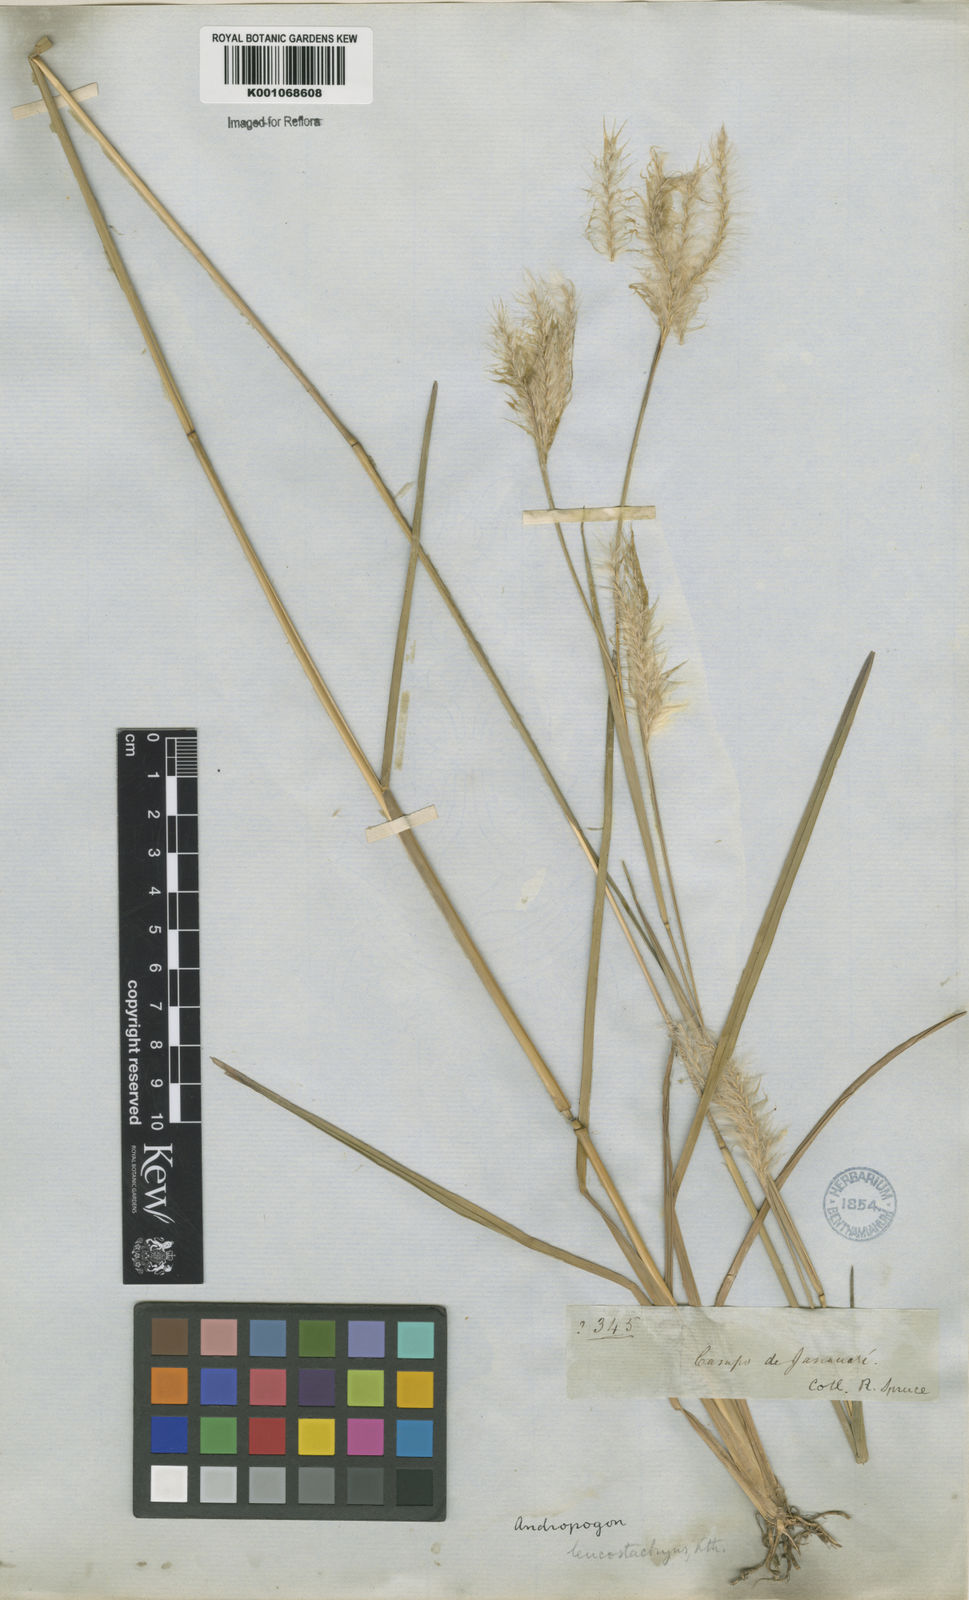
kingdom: Plantae
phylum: Tracheophyta
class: Liliopsida
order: Poales
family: Poaceae
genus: Andropogon
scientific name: Andropogon selloanus
